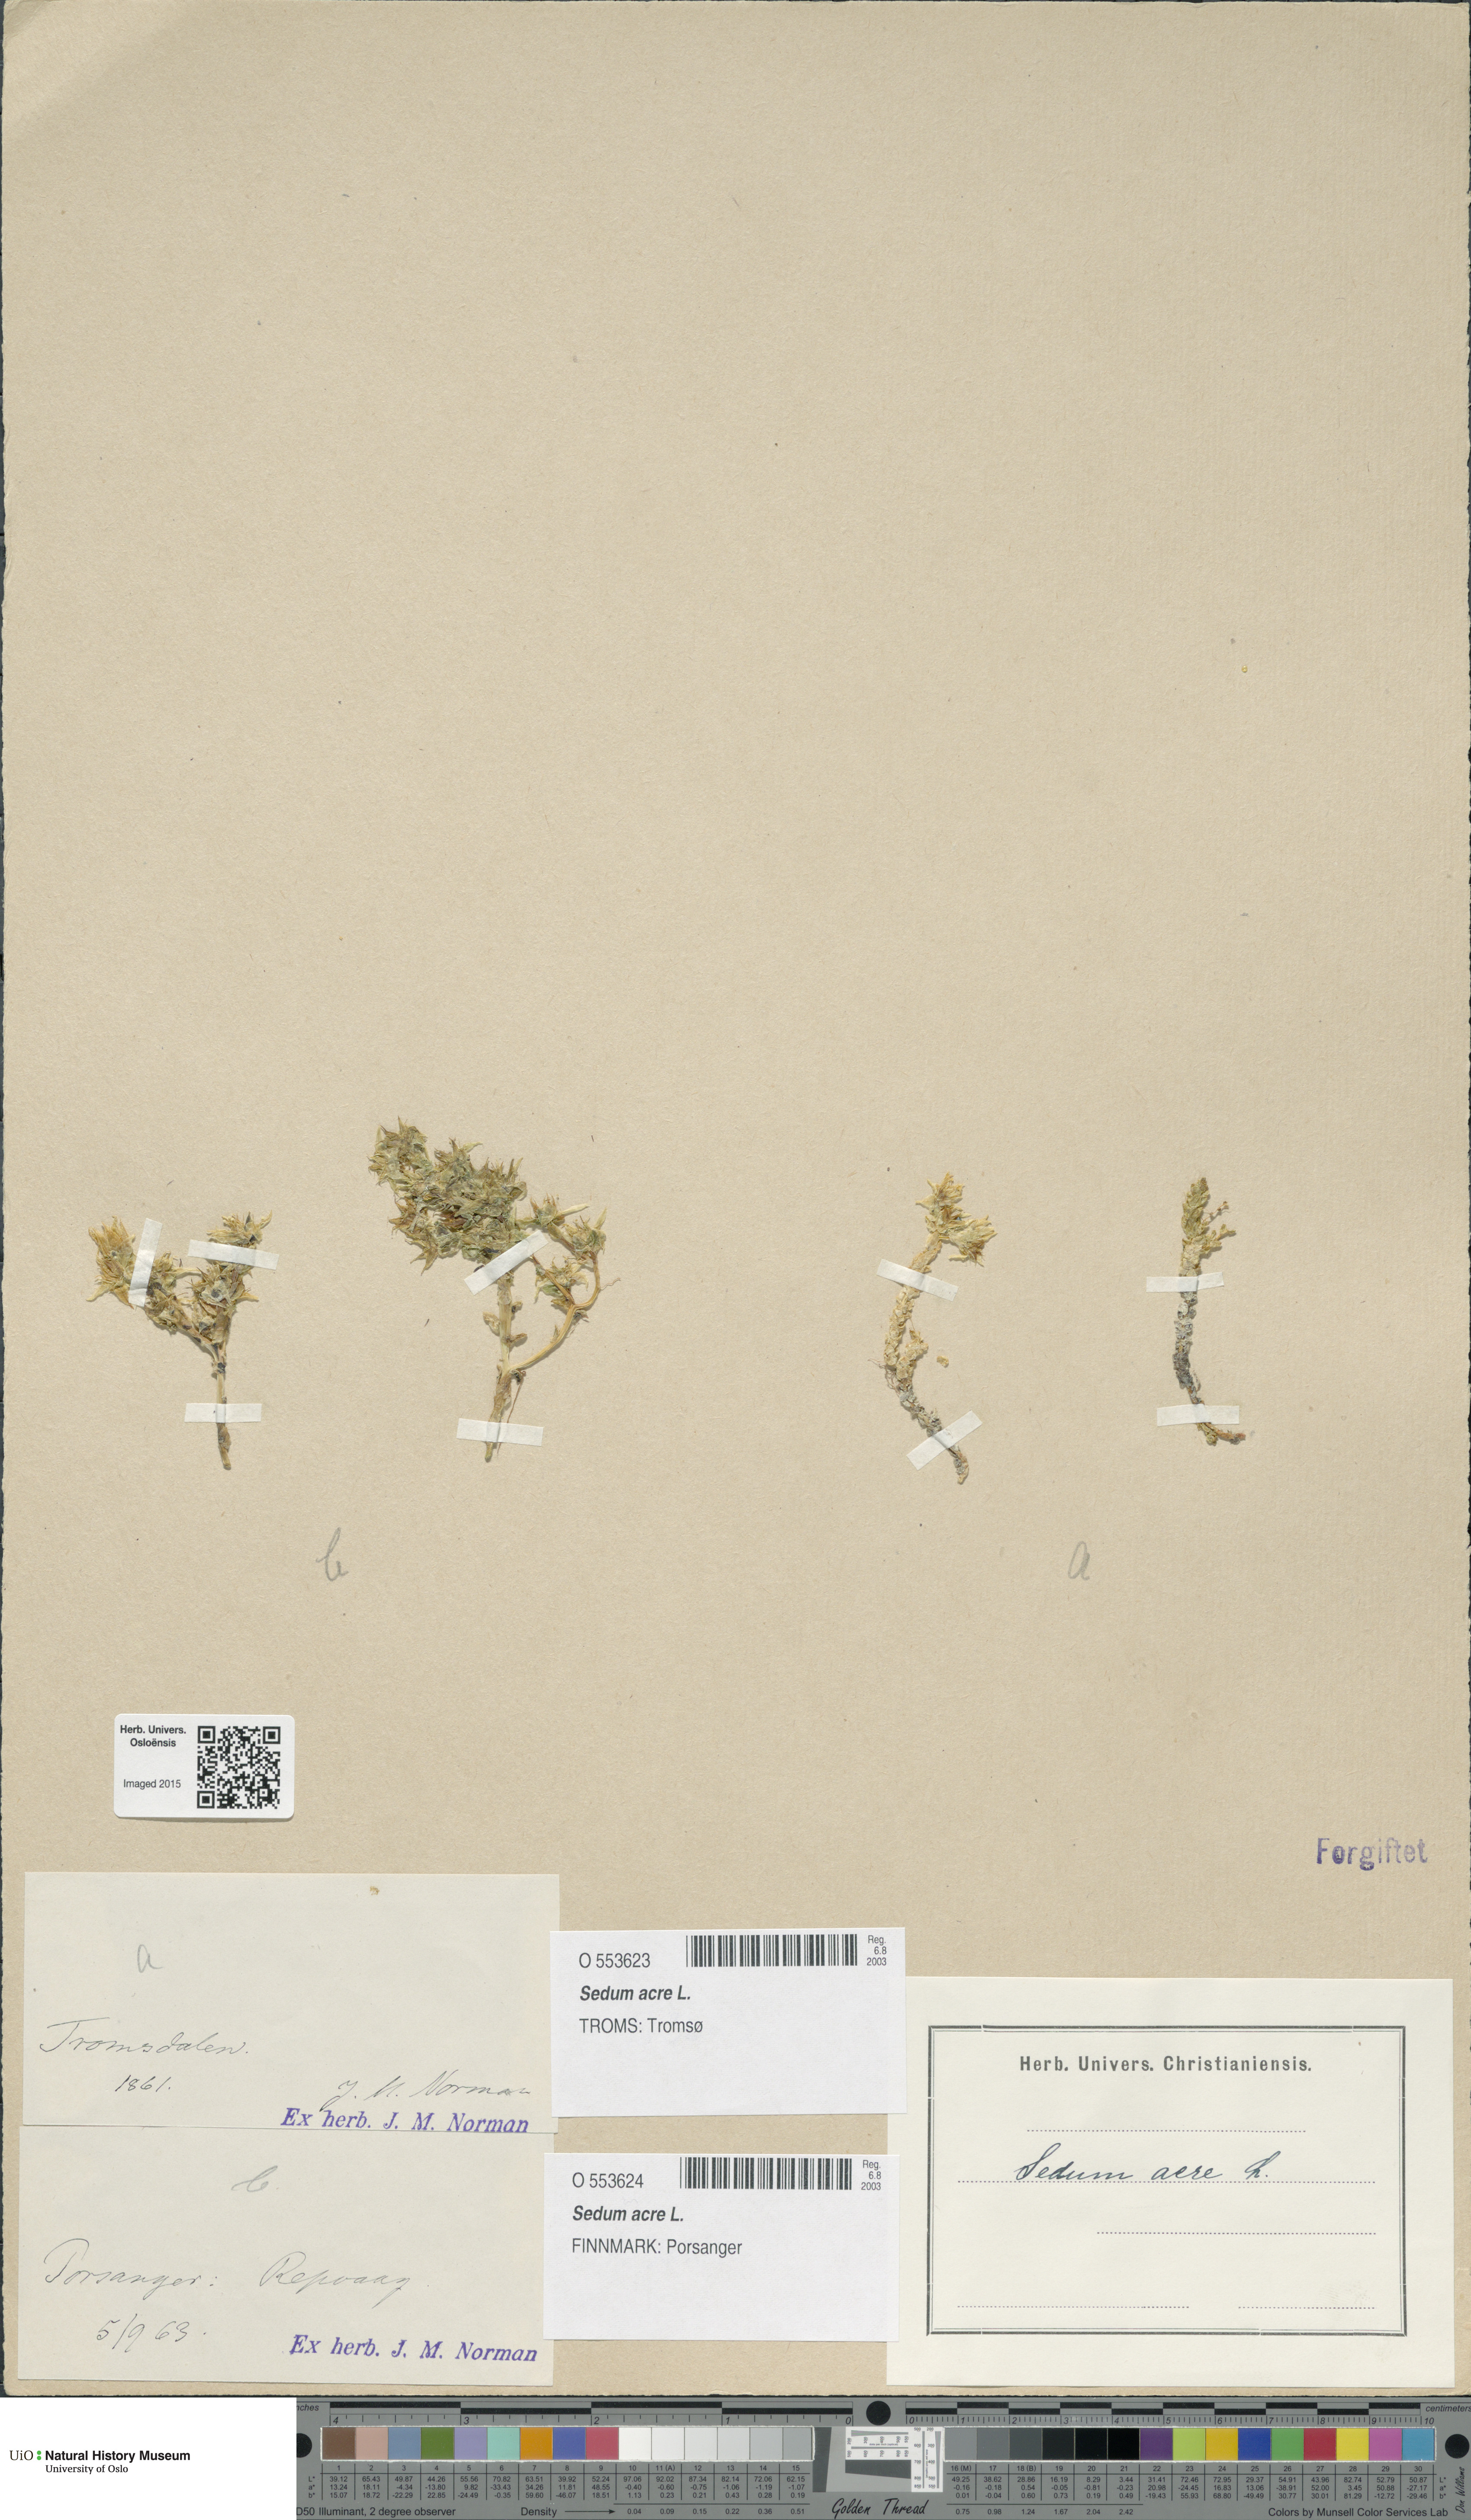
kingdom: Plantae
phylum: Tracheophyta
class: Magnoliopsida
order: Saxifragales
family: Crassulaceae
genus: Sedum
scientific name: Sedum acre
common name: Biting stonecrop
